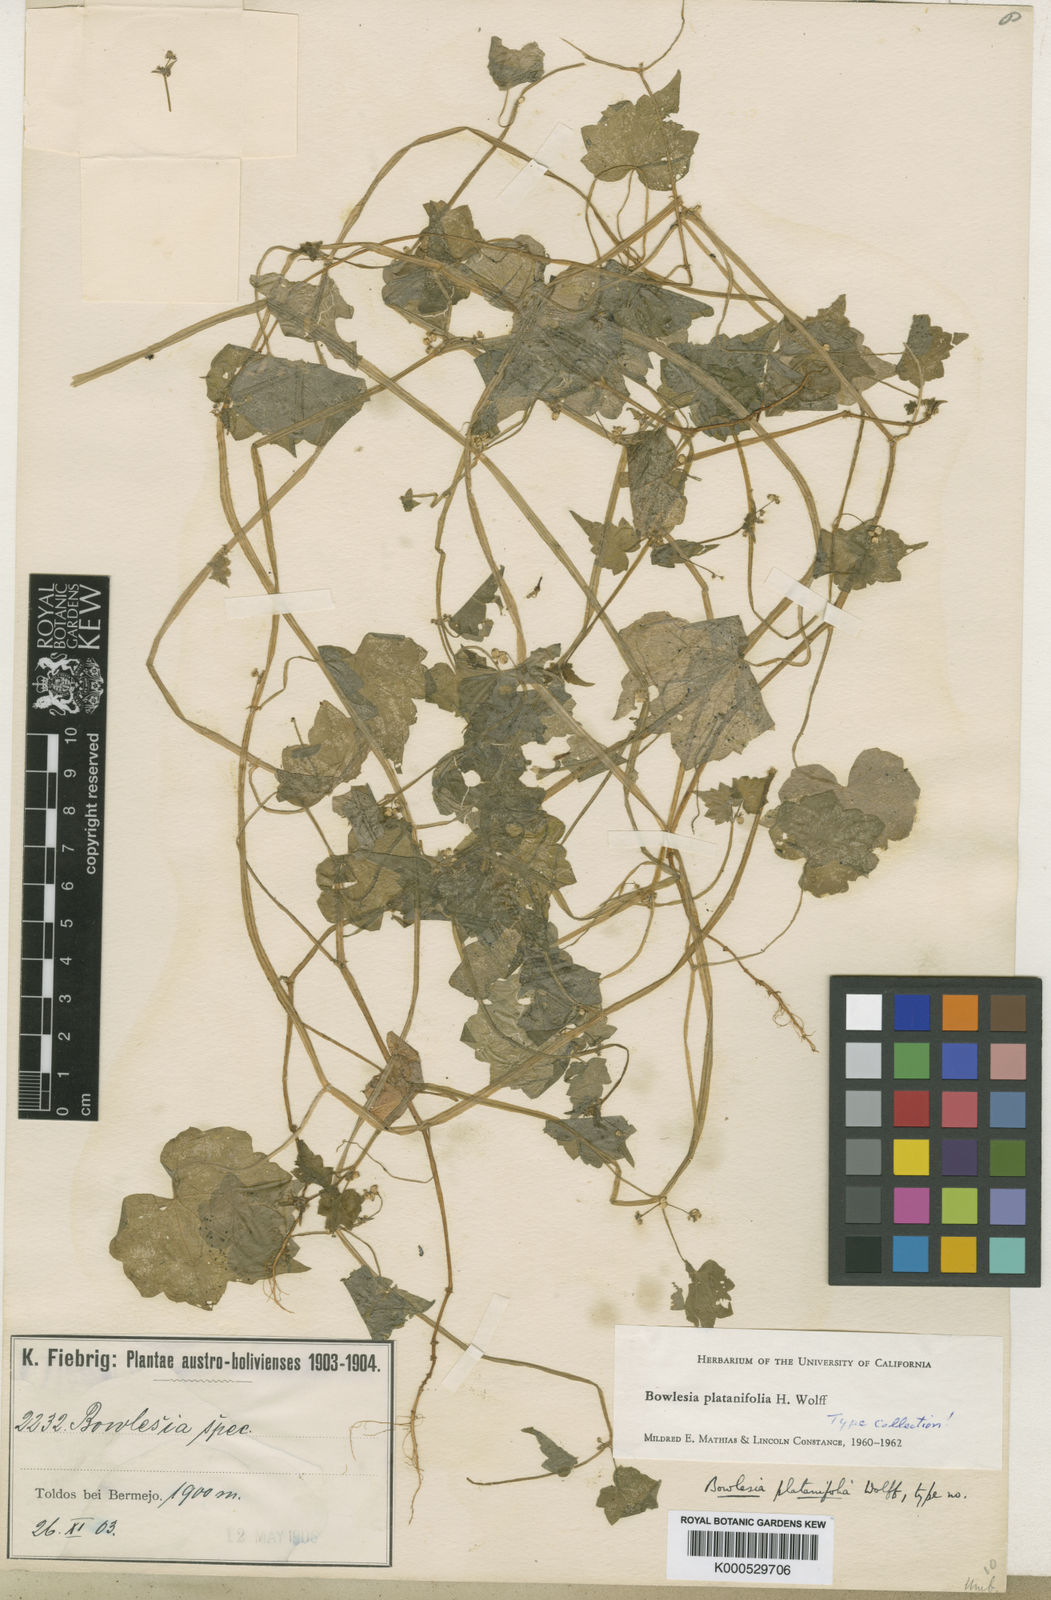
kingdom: Plantae
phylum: Tracheophyta
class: Magnoliopsida
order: Apiales
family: Apiaceae
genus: Bowlesia
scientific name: Bowlesia platanifolia
